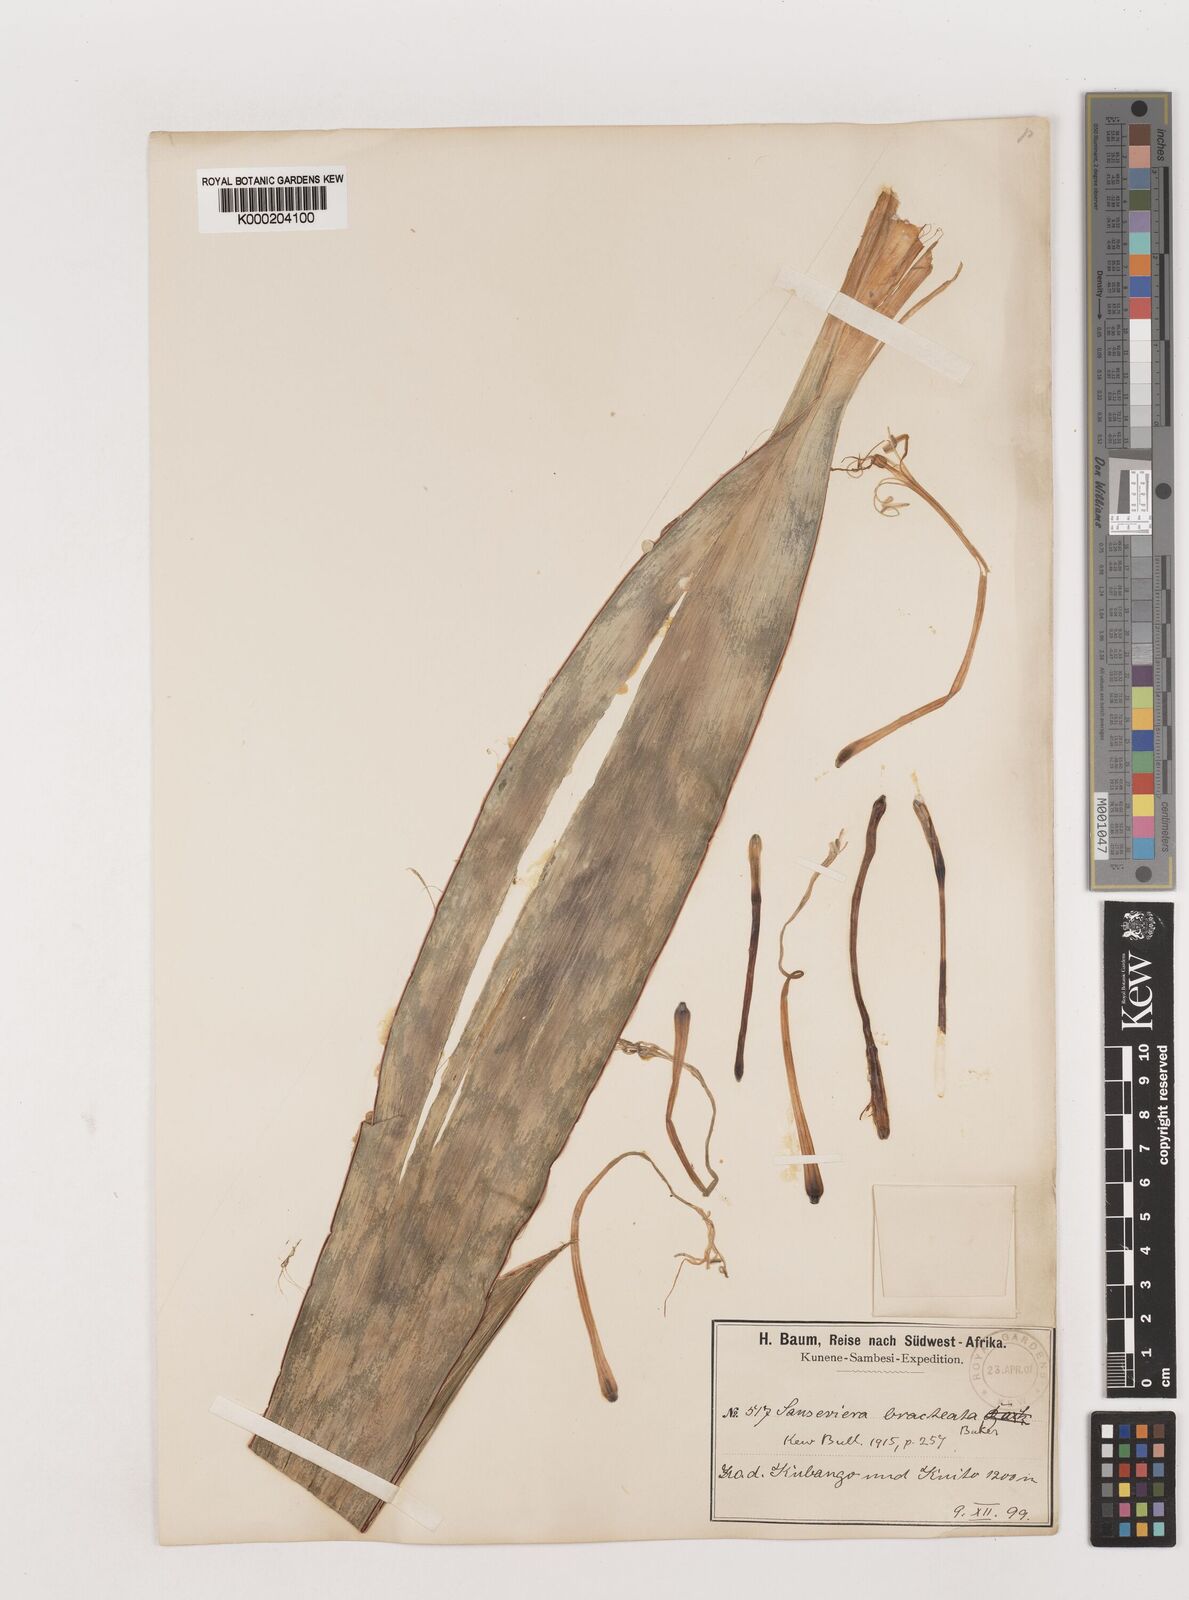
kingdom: Plantae
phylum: Tracheophyta
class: Liliopsida
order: Asparagales
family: Asparagaceae
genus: Dracaena
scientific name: Dracaena aubrytiana
